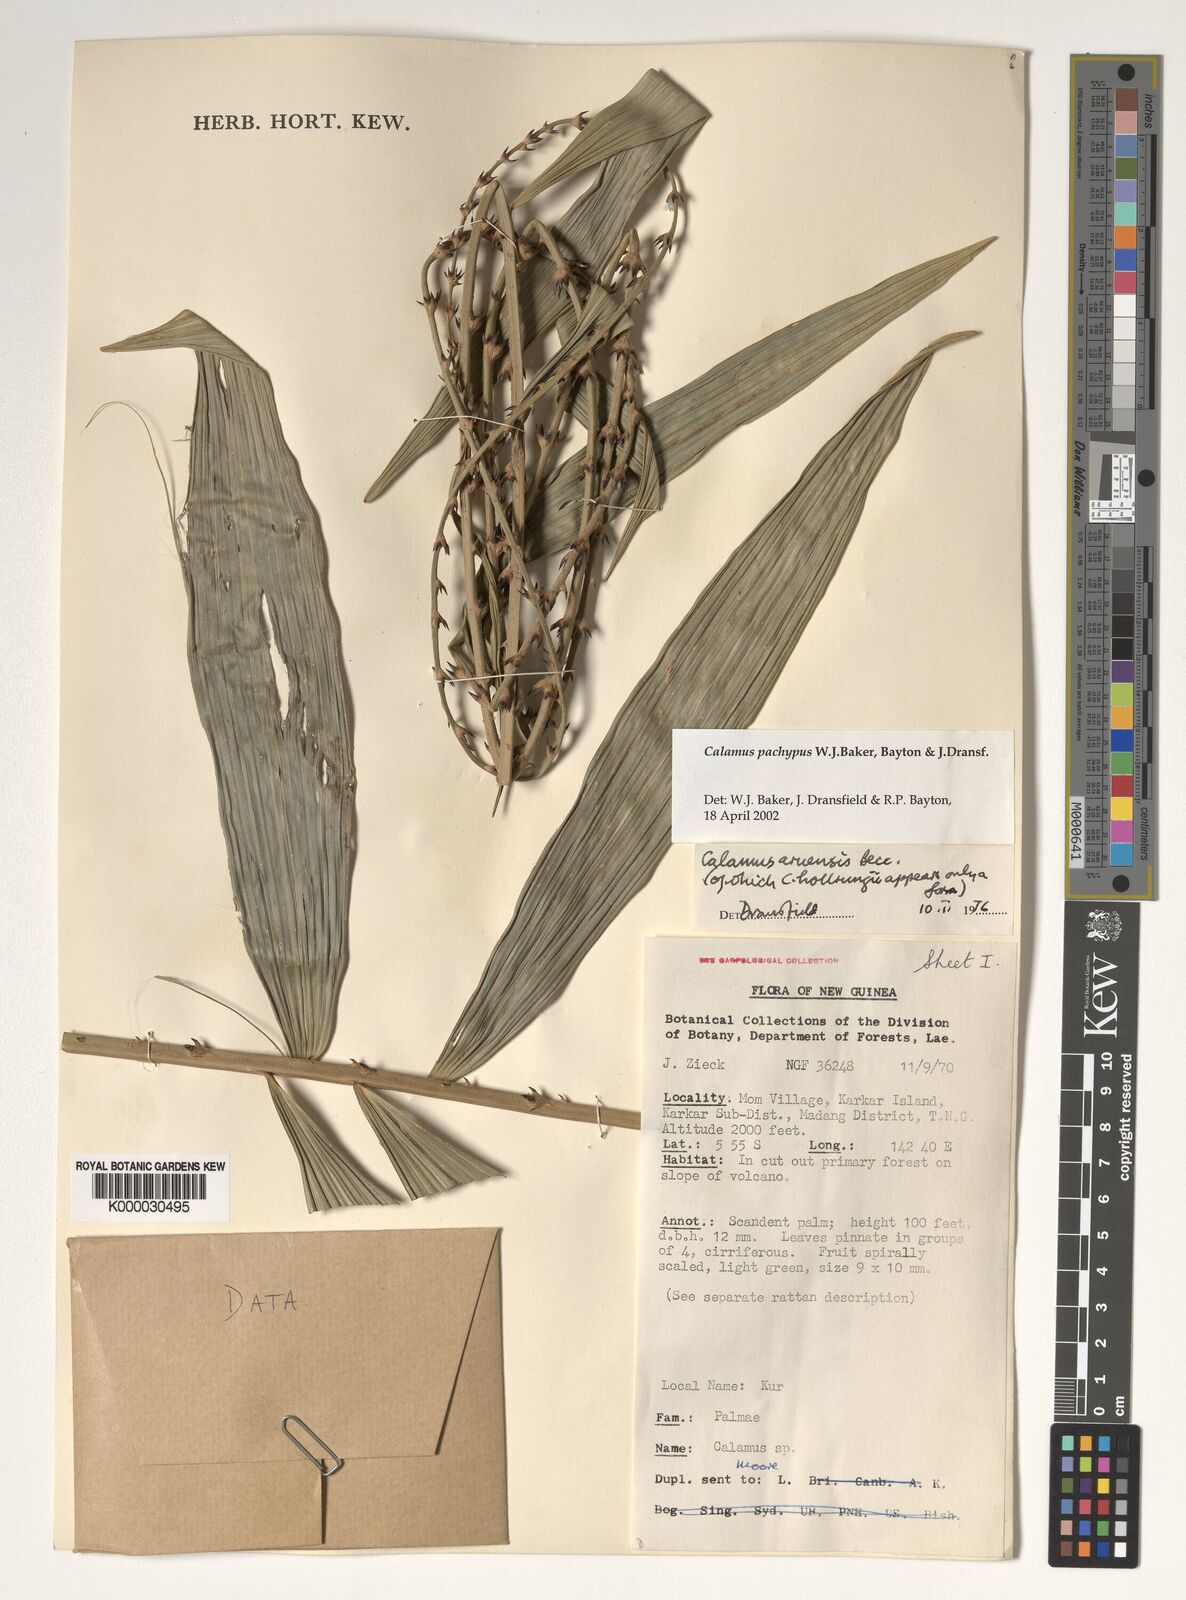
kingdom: Plantae
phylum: Tracheophyta
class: Liliopsida
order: Arecales
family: Arecaceae
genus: Calamus
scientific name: Calamus
